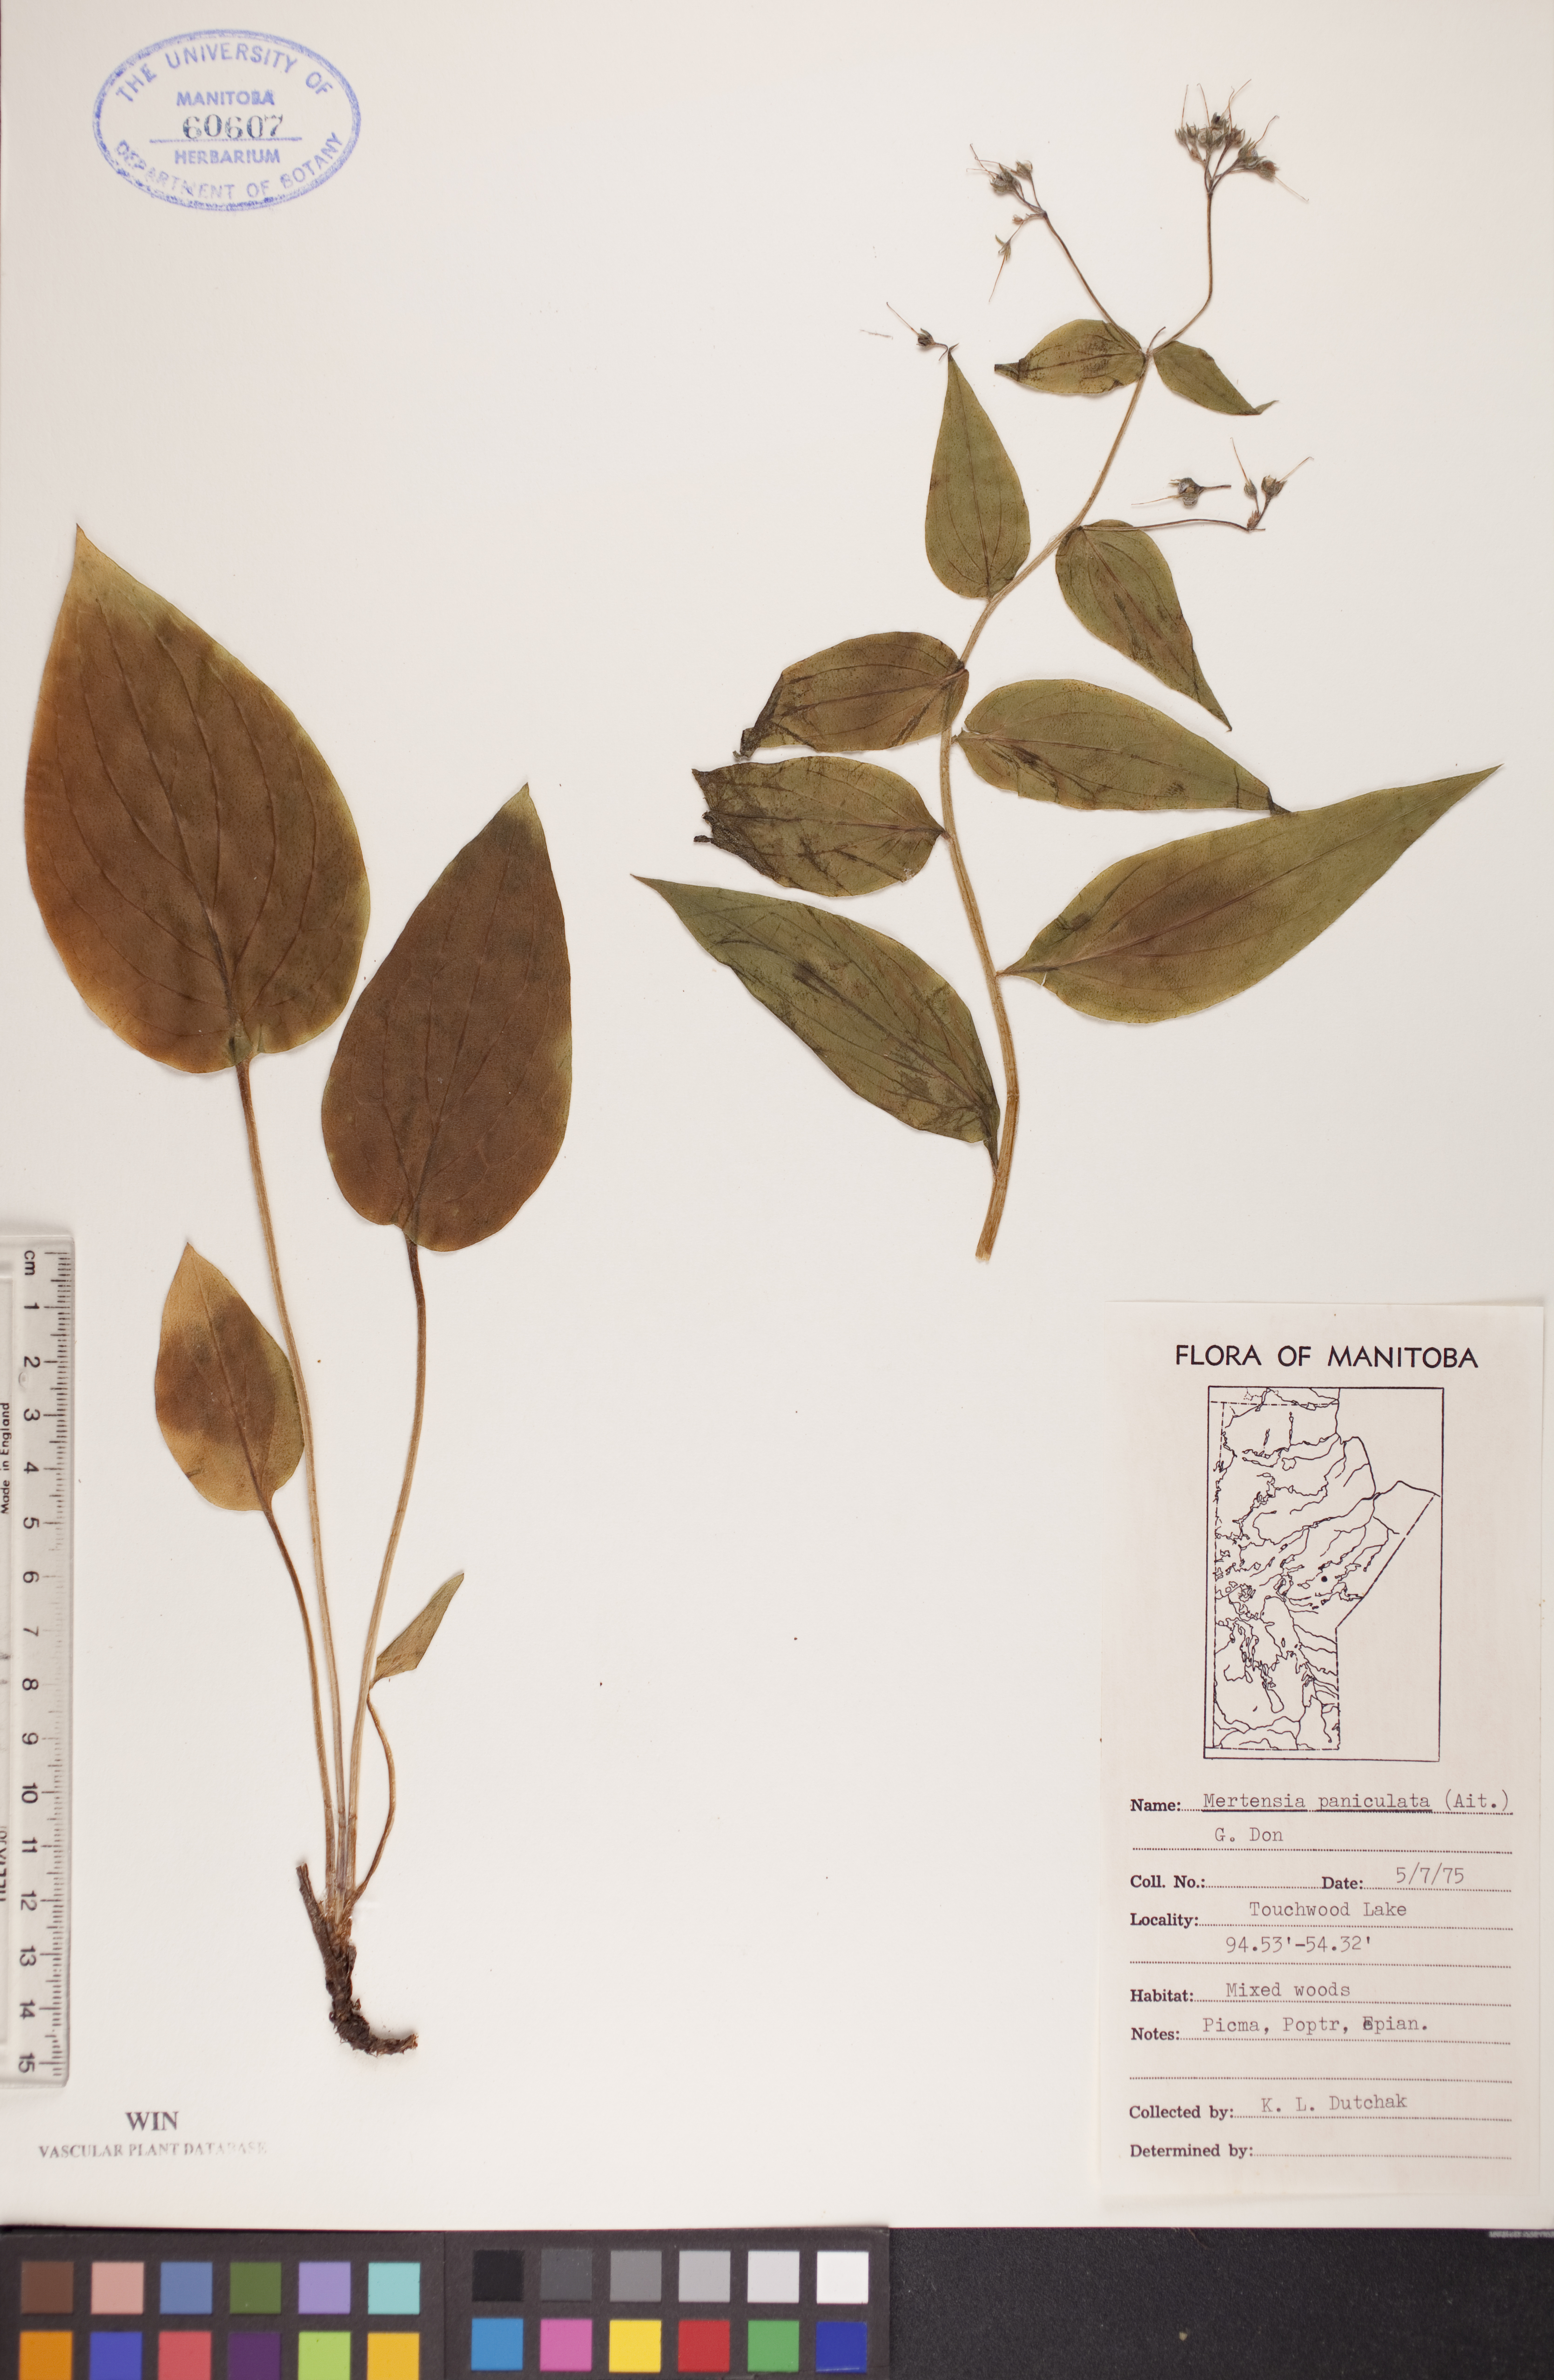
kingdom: Plantae
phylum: Tracheophyta
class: Magnoliopsida
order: Boraginales
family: Boraginaceae
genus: Mertensia
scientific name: Mertensia paniculata
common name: Panicled bluebells
